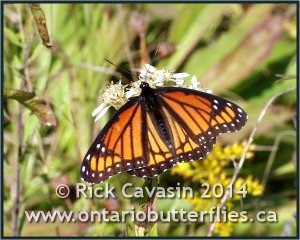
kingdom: Animalia
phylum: Arthropoda
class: Insecta
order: Lepidoptera
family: Nymphalidae
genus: Limenitis
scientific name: Limenitis archippus
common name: Viceroy
